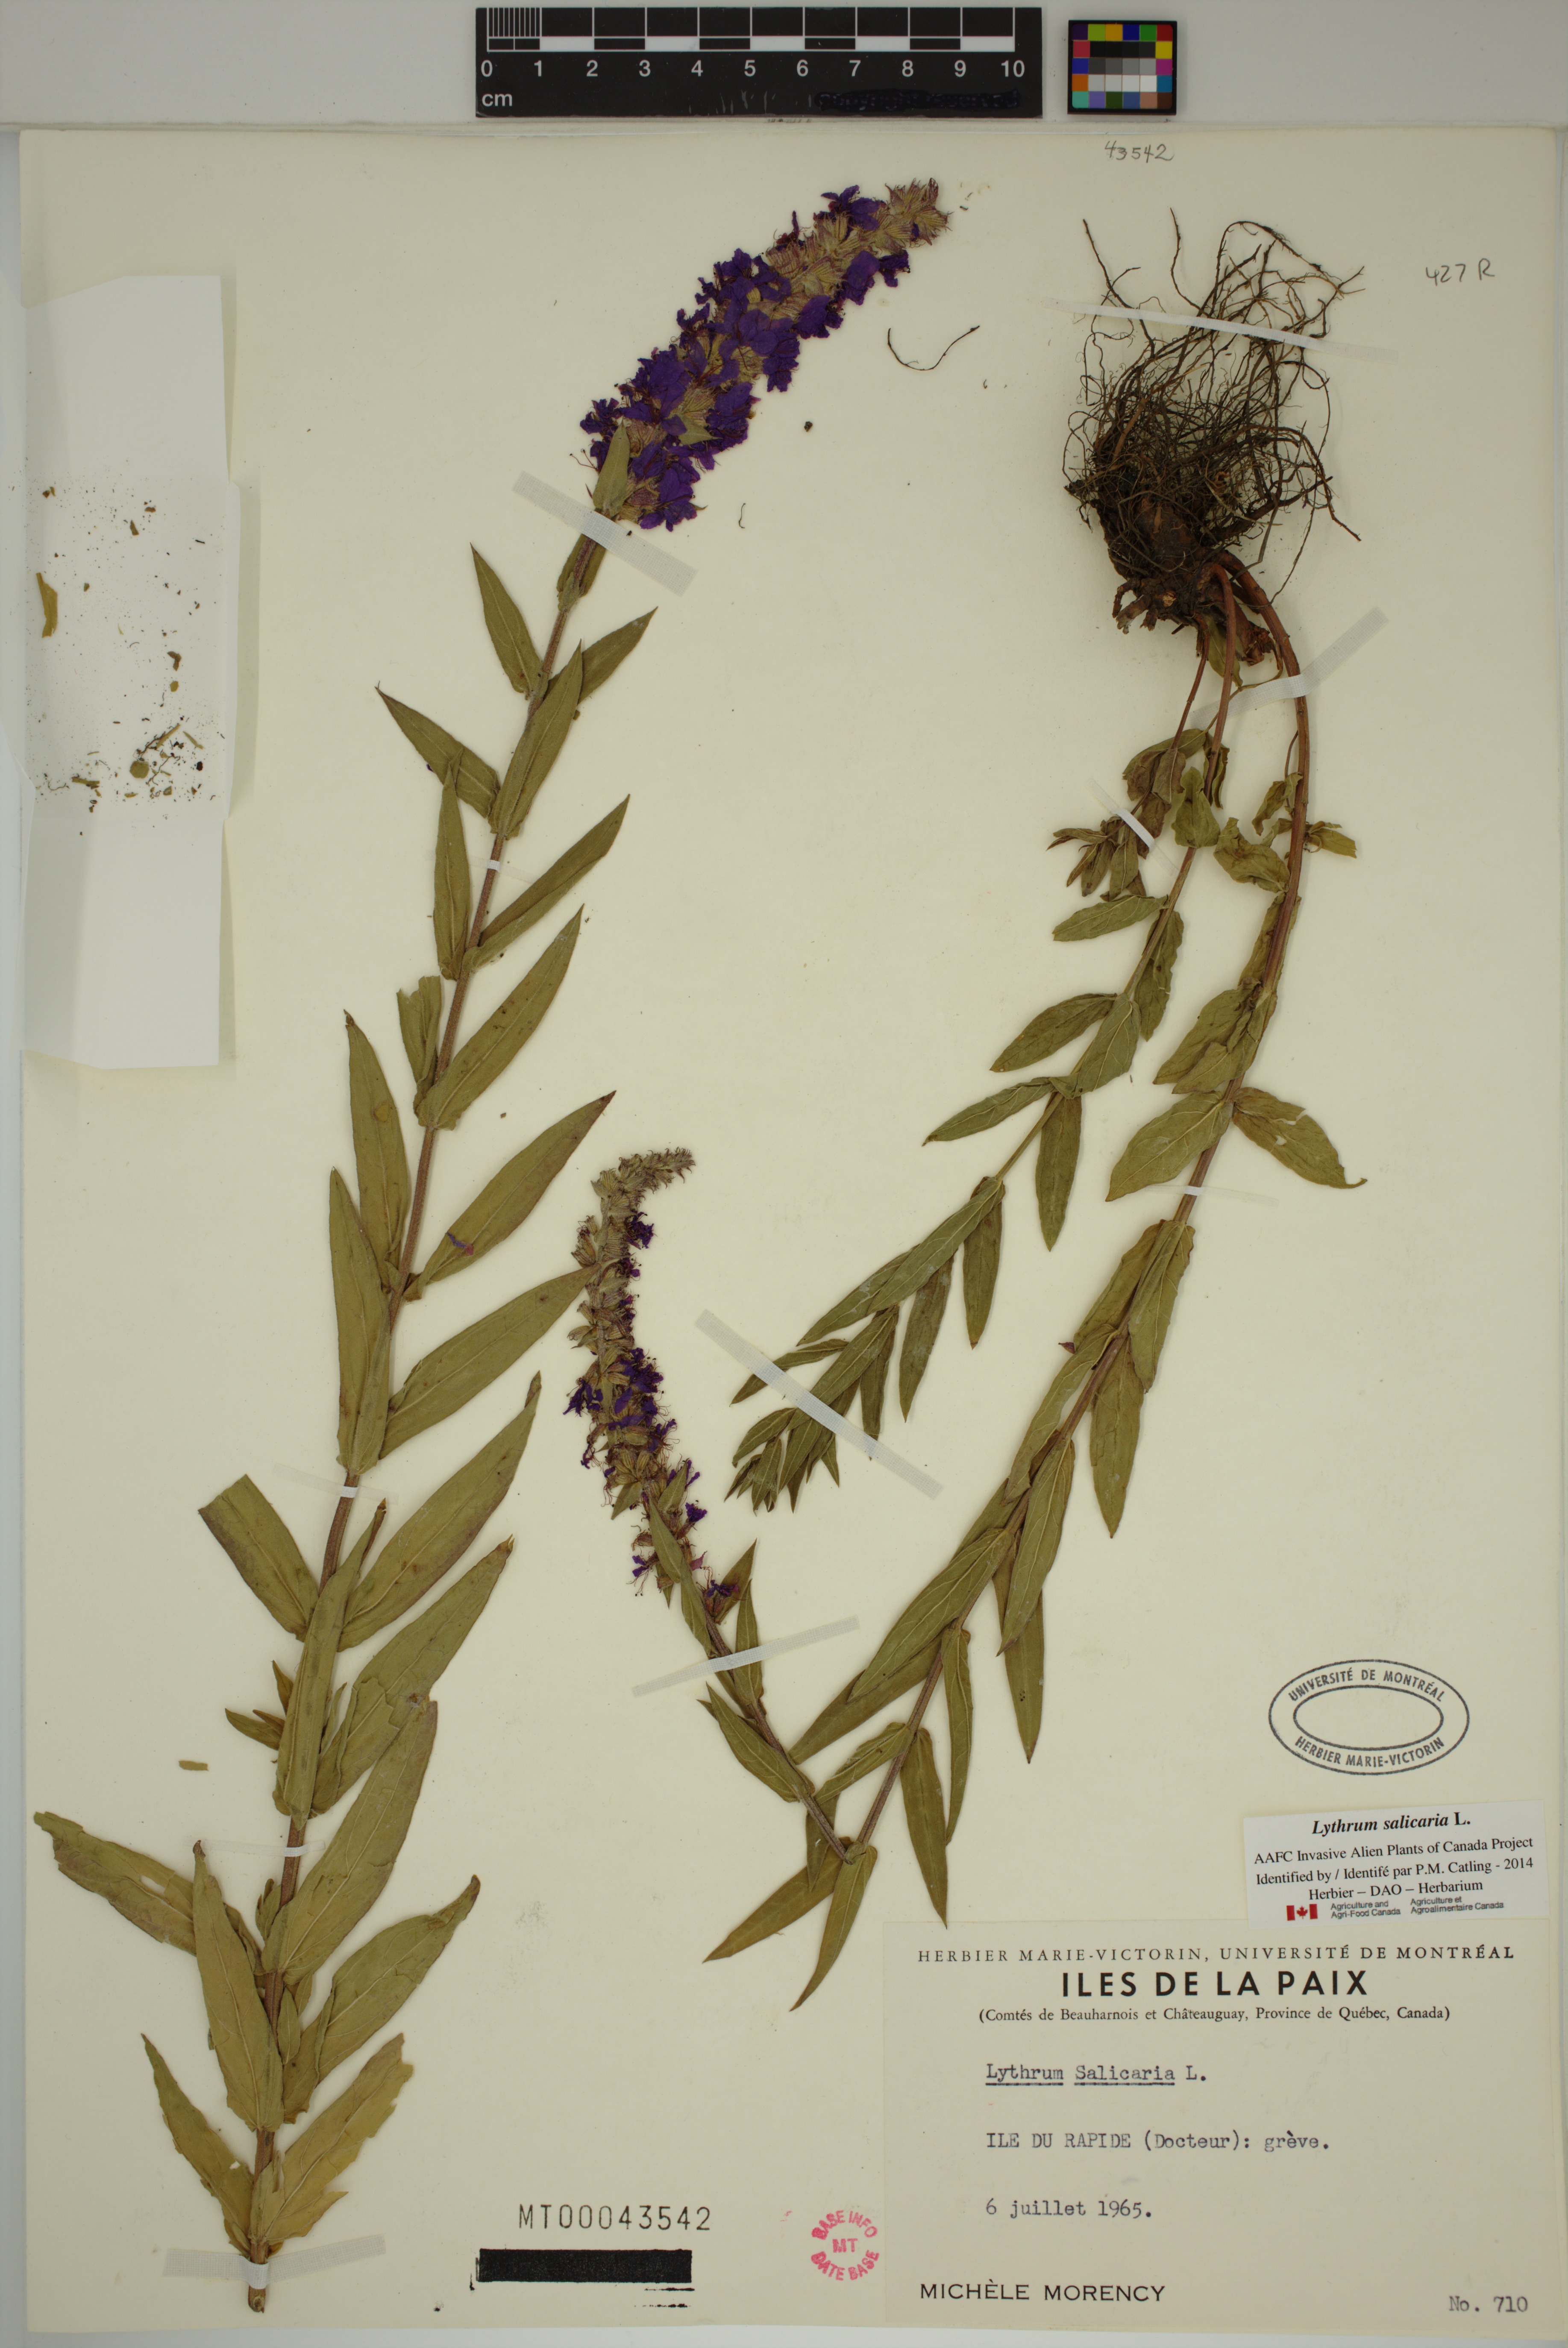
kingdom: Plantae
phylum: Tracheophyta
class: Magnoliopsida
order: Myrtales
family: Lythraceae
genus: Lythrum
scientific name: Lythrum salicaria
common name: Purple loosestrife
